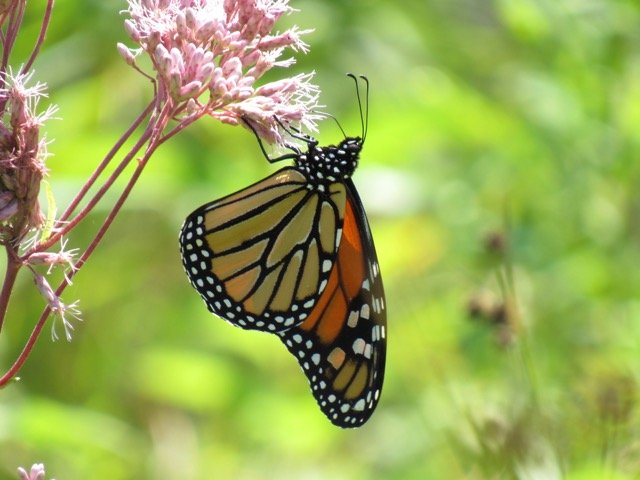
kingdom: Animalia
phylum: Arthropoda
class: Insecta
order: Lepidoptera
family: Nymphalidae
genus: Danaus
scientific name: Danaus plexippus
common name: Monarch
